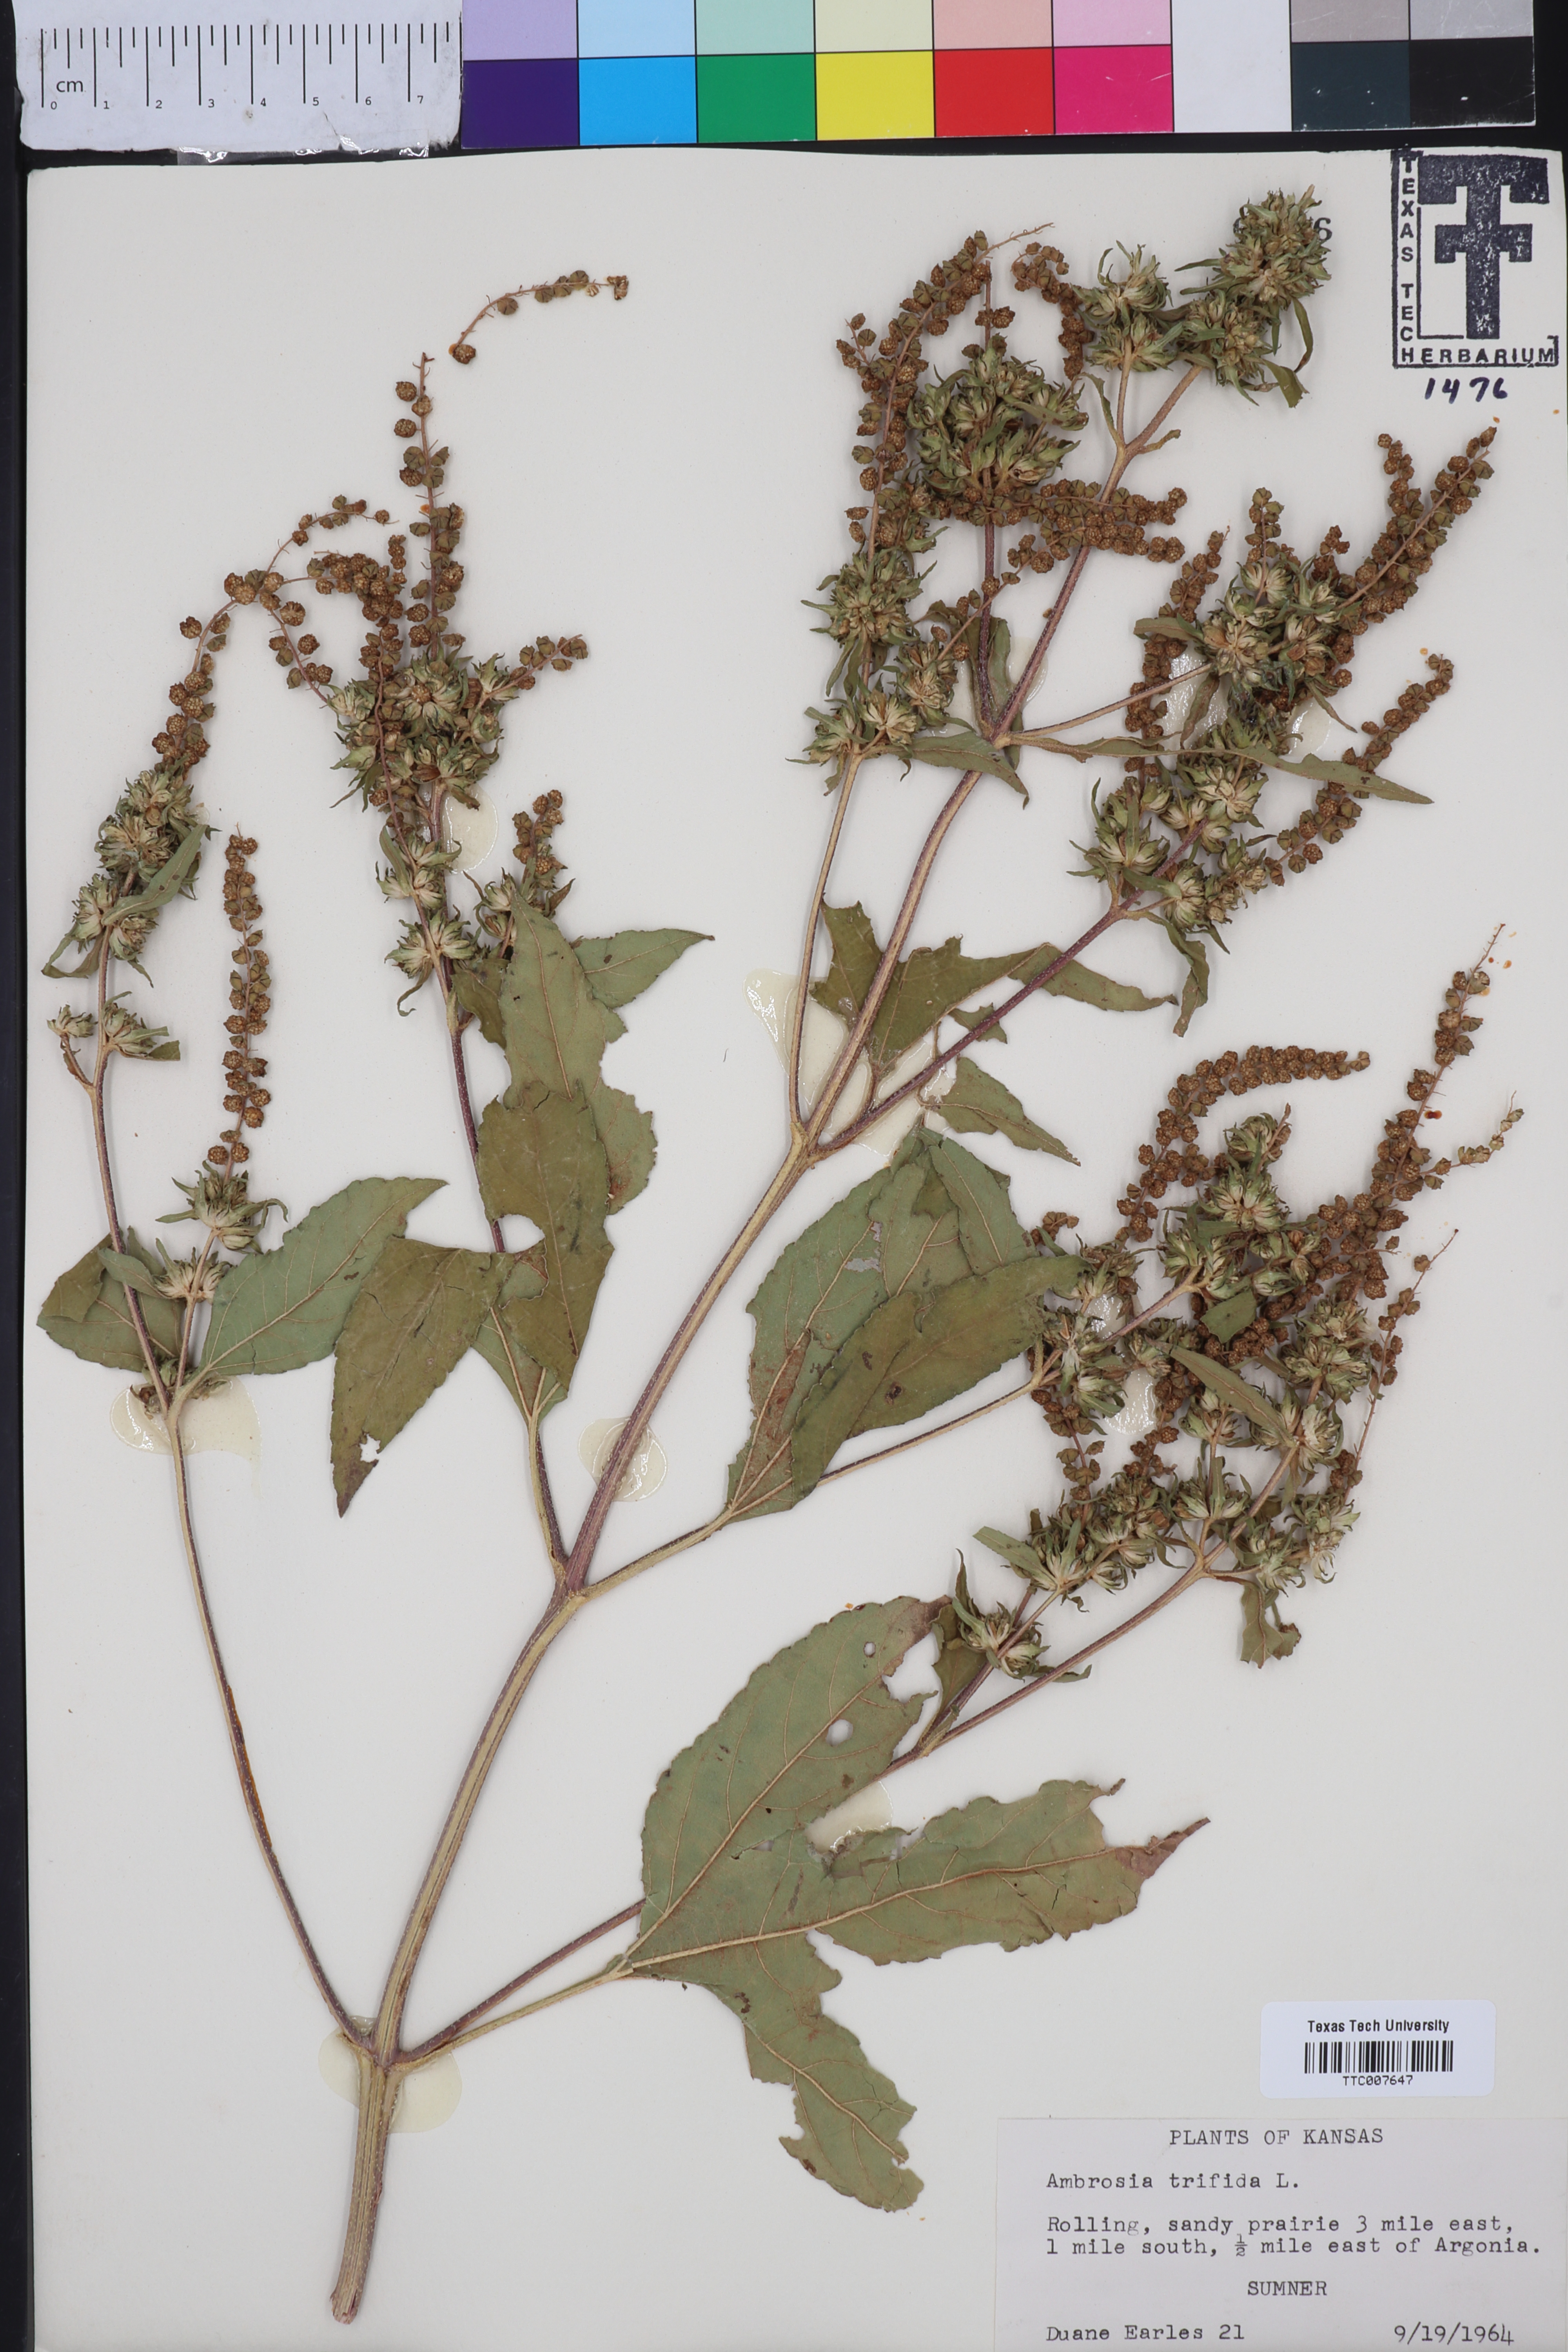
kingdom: Plantae
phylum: Tracheophyta
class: Magnoliopsida
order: Asterales
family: Asteraceae
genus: Ambrosia
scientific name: Ambrosia trifida
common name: Giant ragweed
